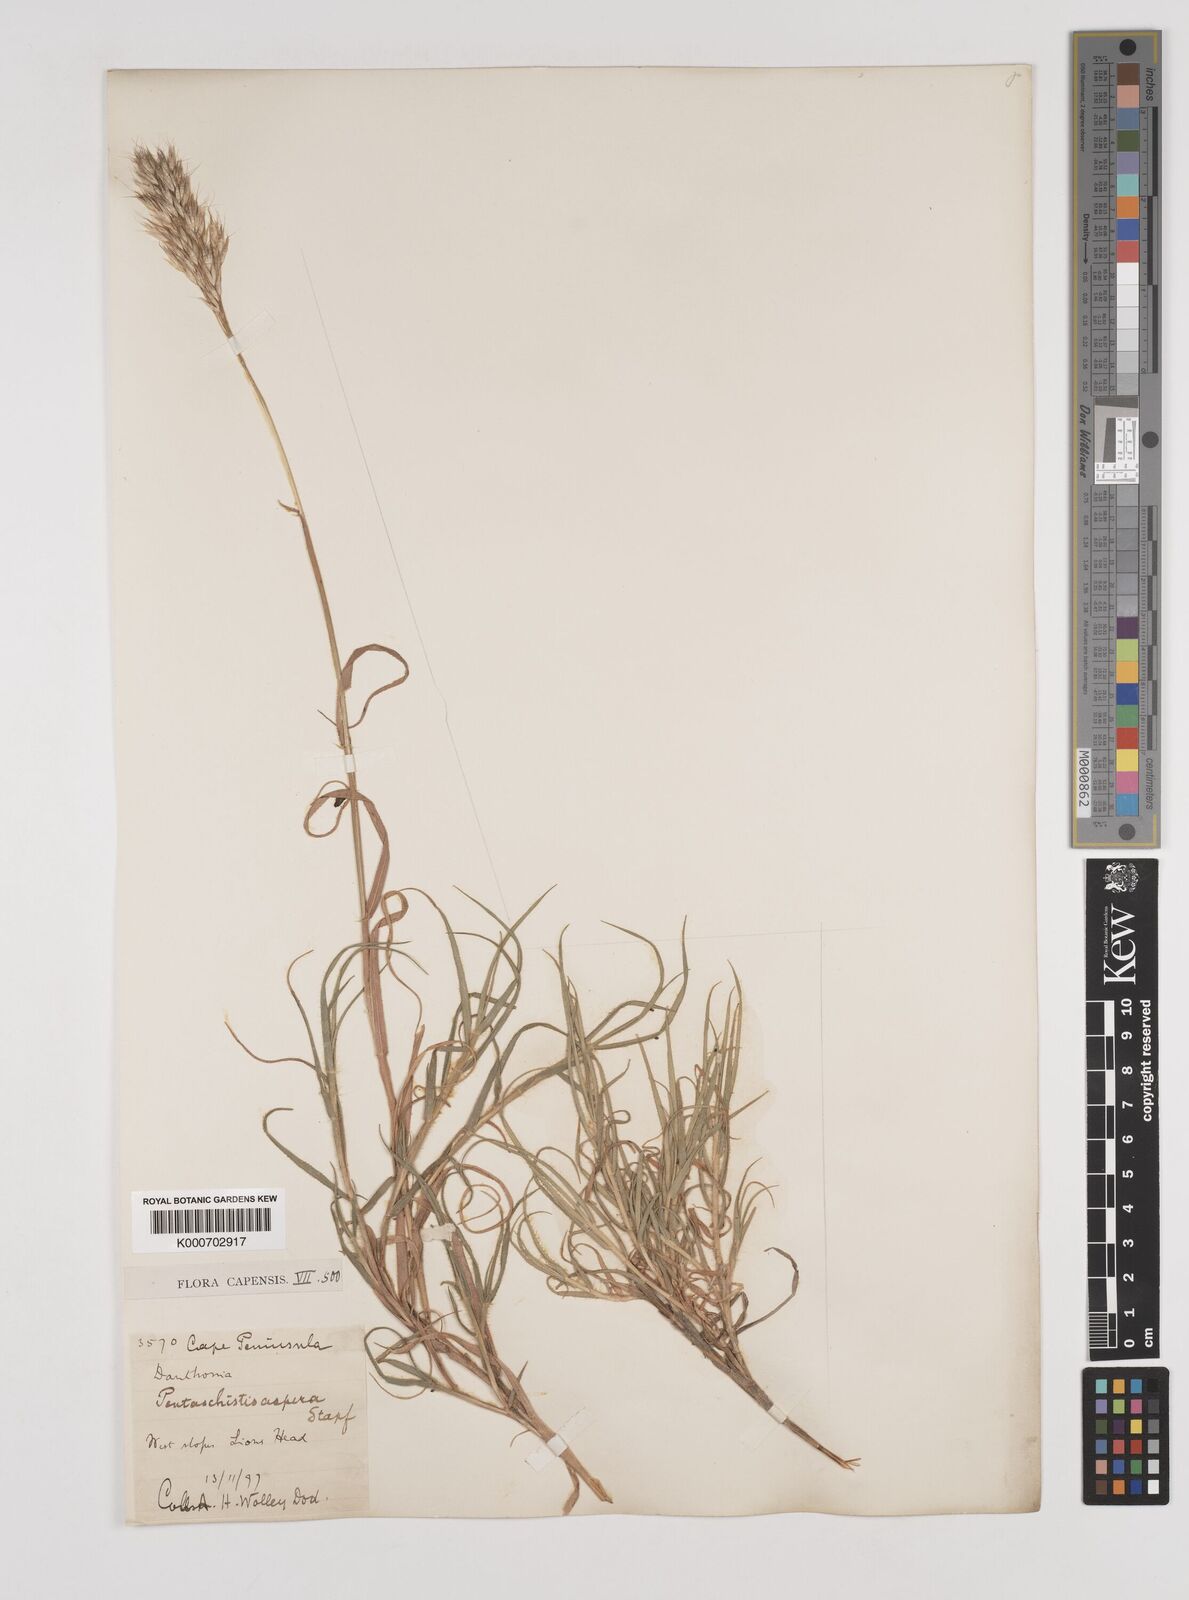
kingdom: Plantae
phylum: Tracheophyta
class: Liliopsida
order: Poales
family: Poaceae
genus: Pentameris
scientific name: Pentameris aspera
